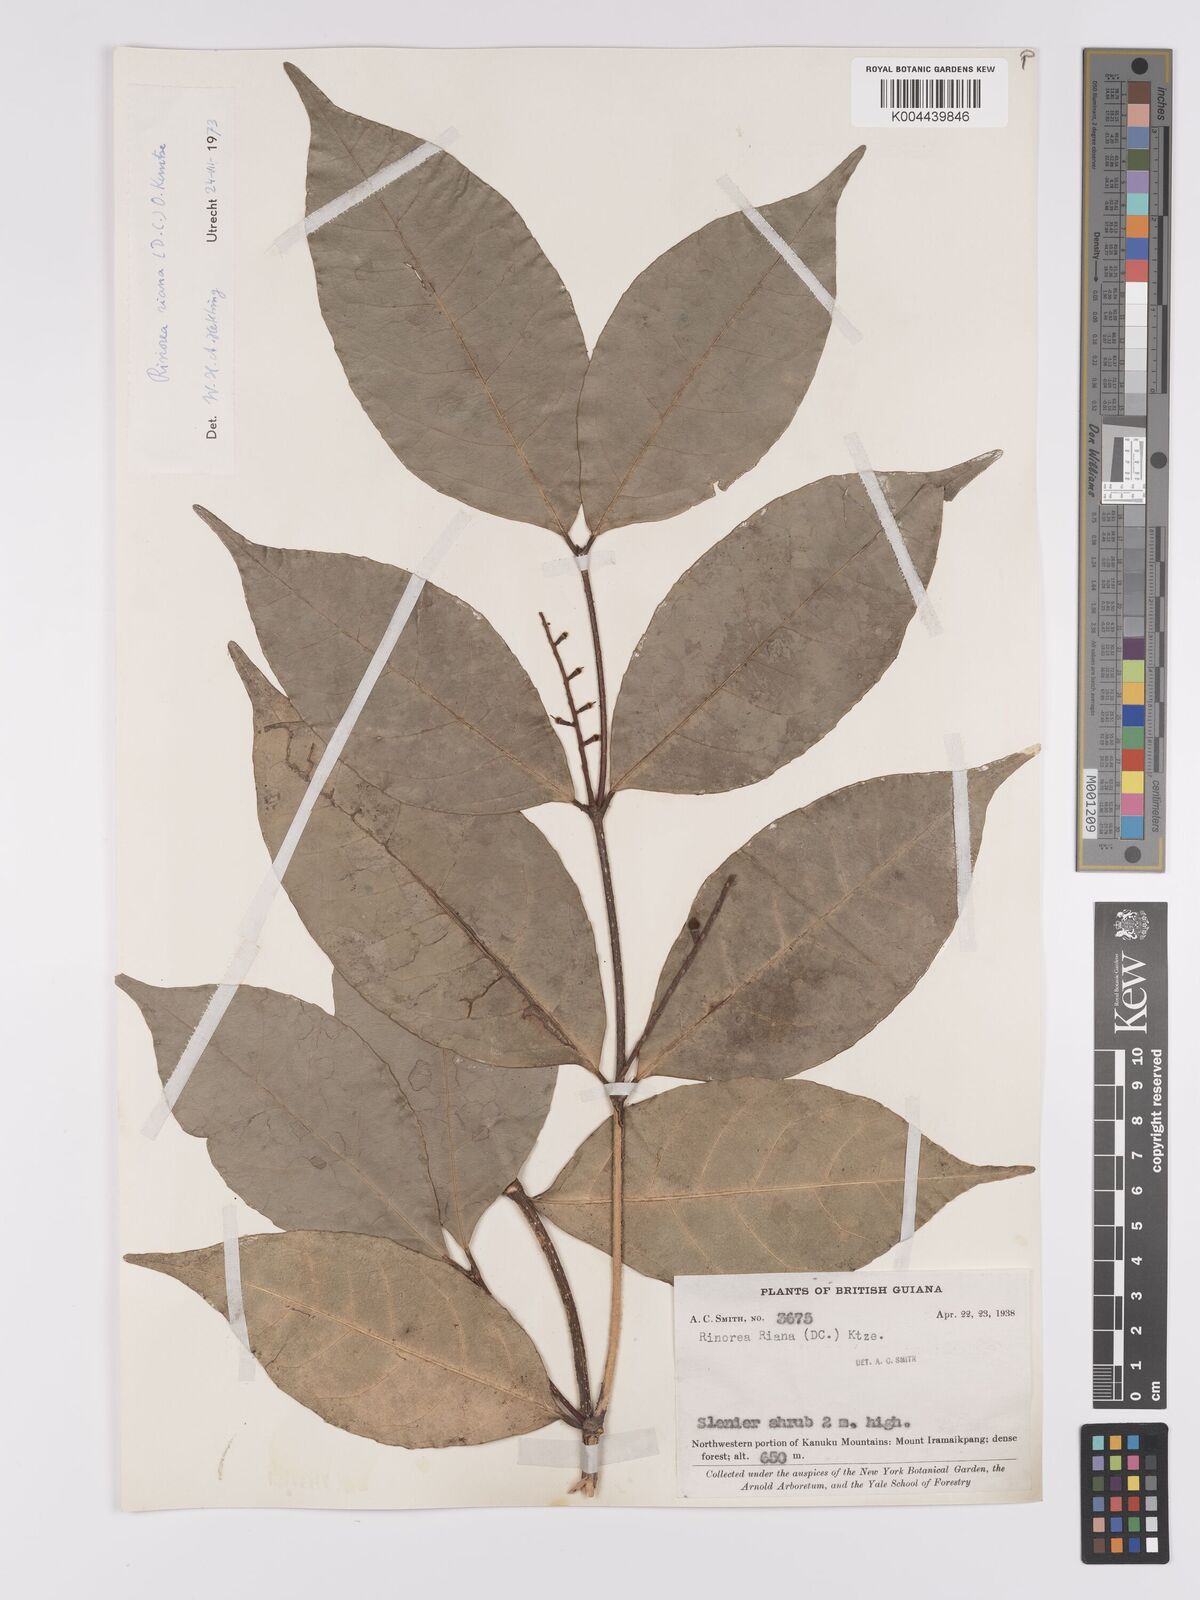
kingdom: Plantae
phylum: Tracheophyta
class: Magnoliopsida
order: Malpighiales
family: Violaceae
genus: Rinorea
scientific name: Rinorea riana
